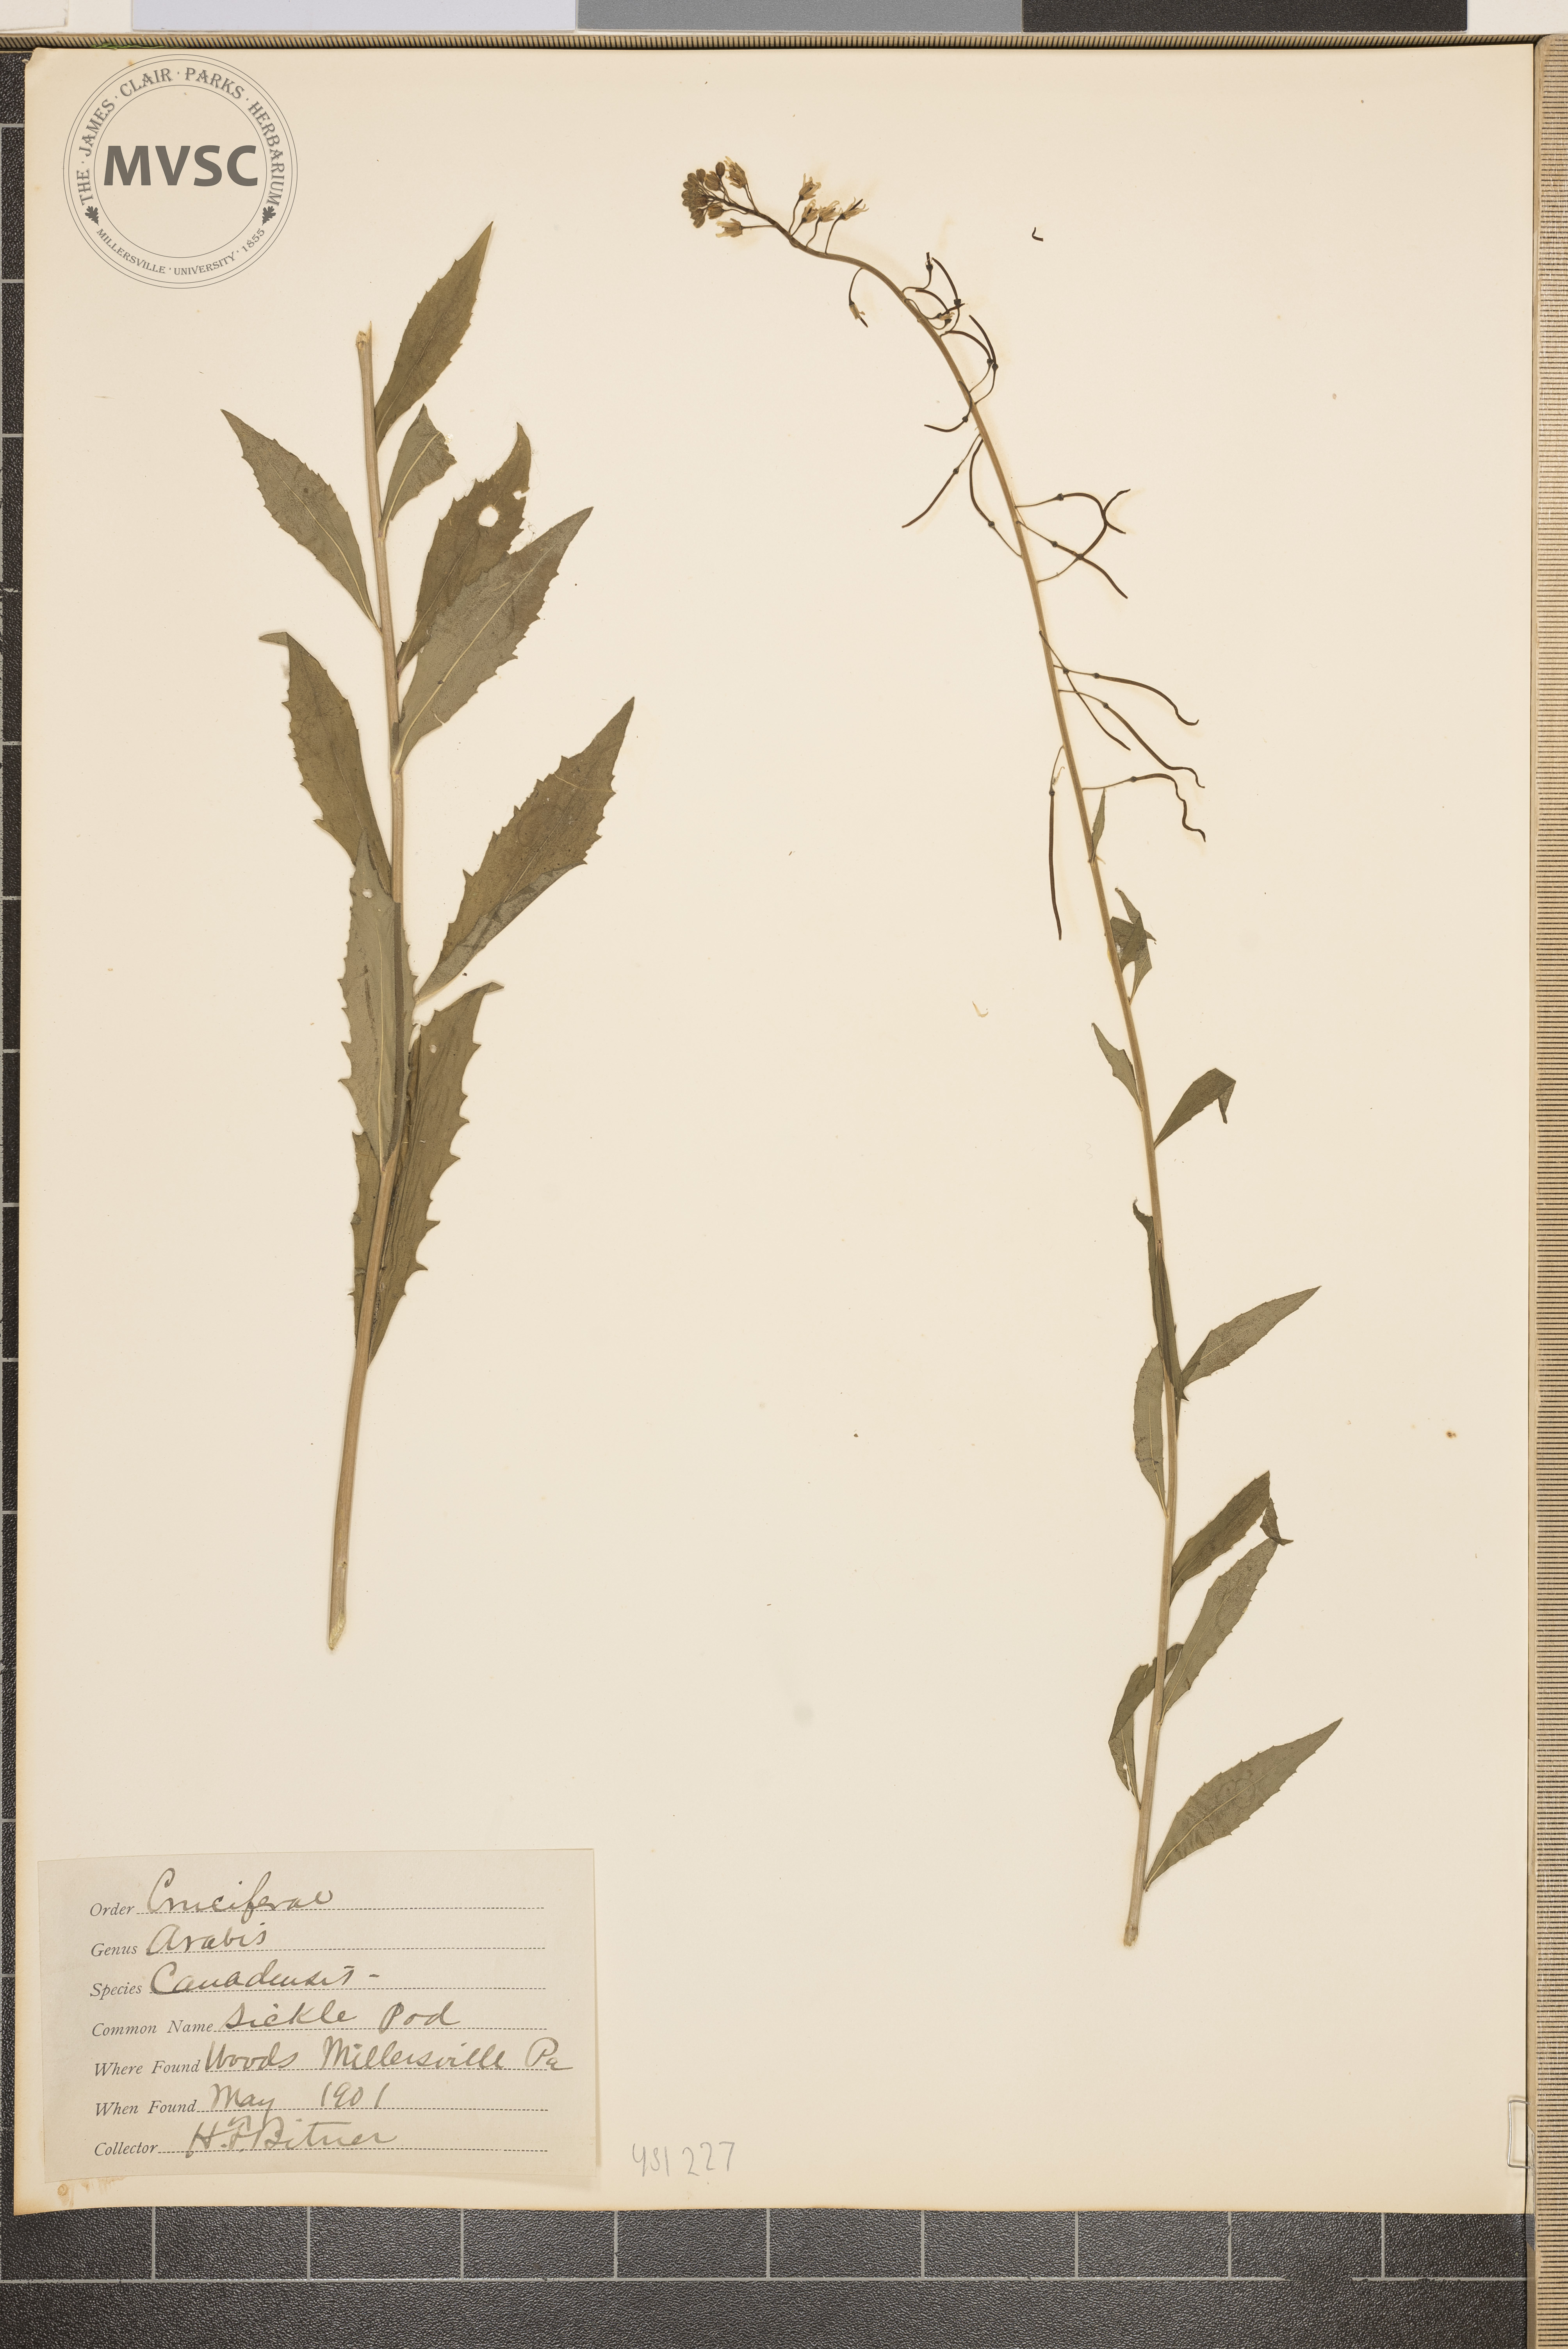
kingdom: Plantae
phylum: Tracheophyta
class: Magnoliopsida
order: Brassicales
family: Brassicaceae
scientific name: Brassicaceae
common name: Sickle pod
